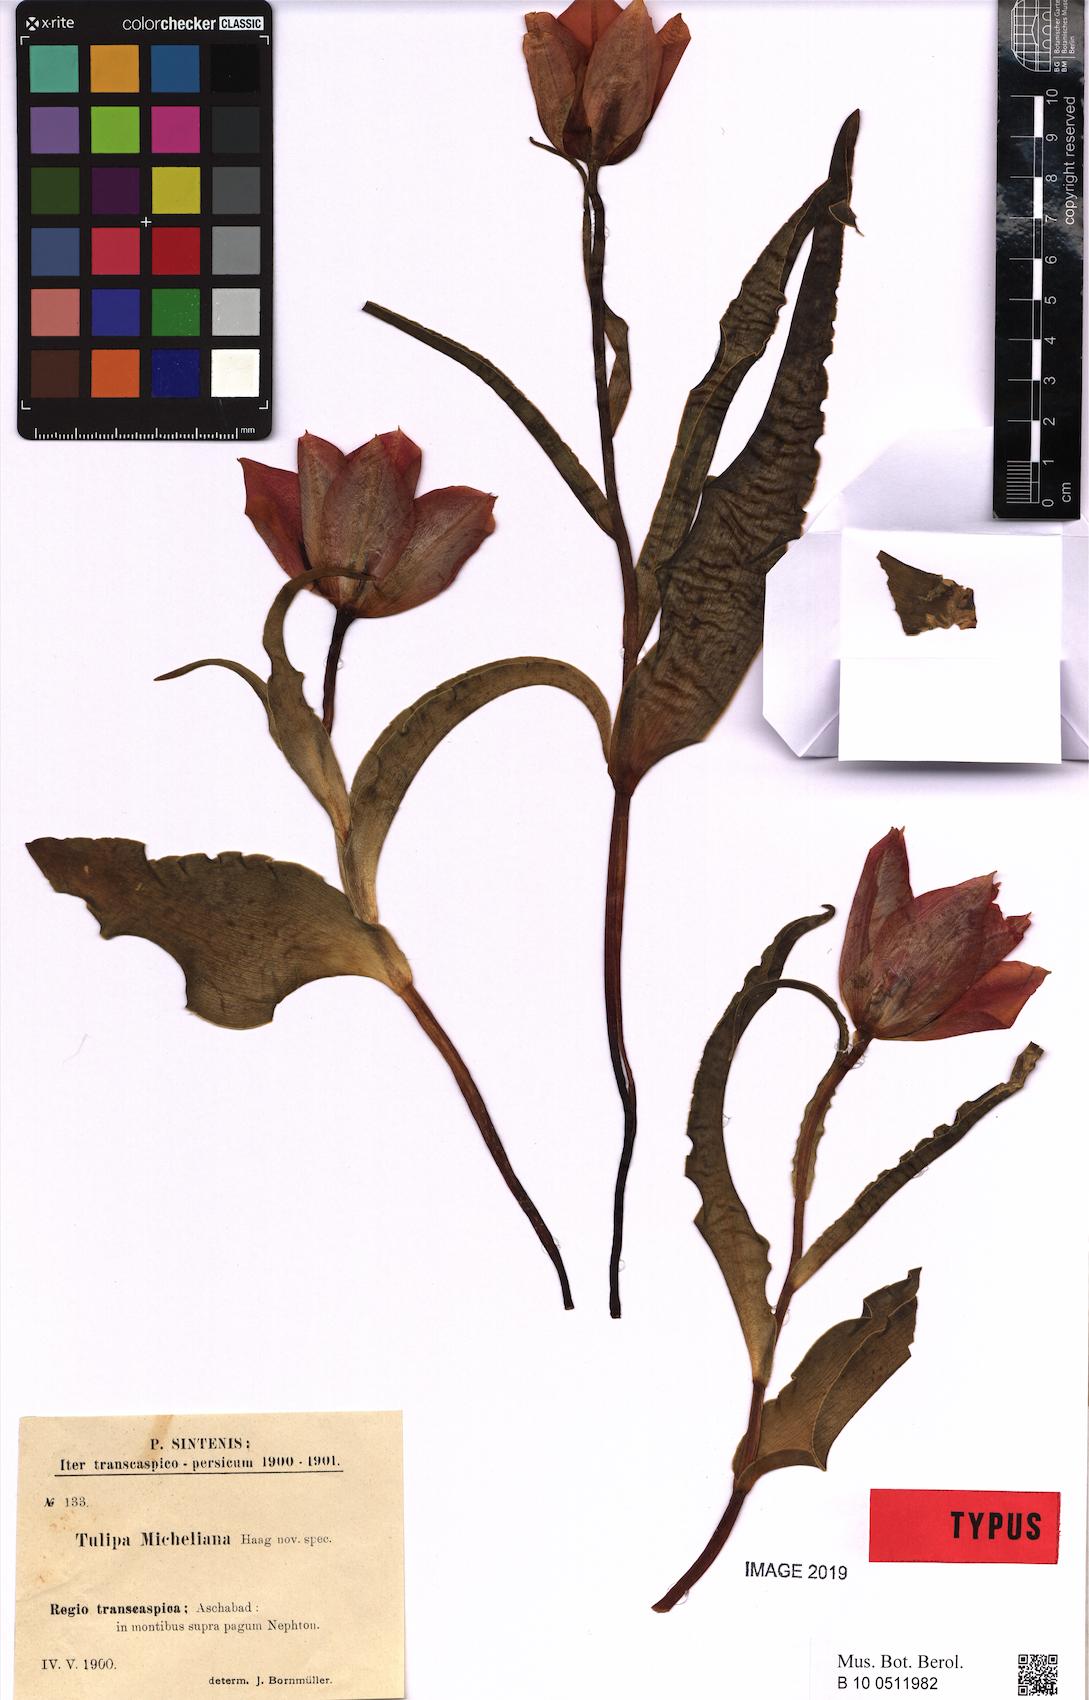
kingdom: Plantae
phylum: Tracheophyta
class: Liliopsida
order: Liliales
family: Liliaceae
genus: Tulipa
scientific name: Tulipa undulatifolia
